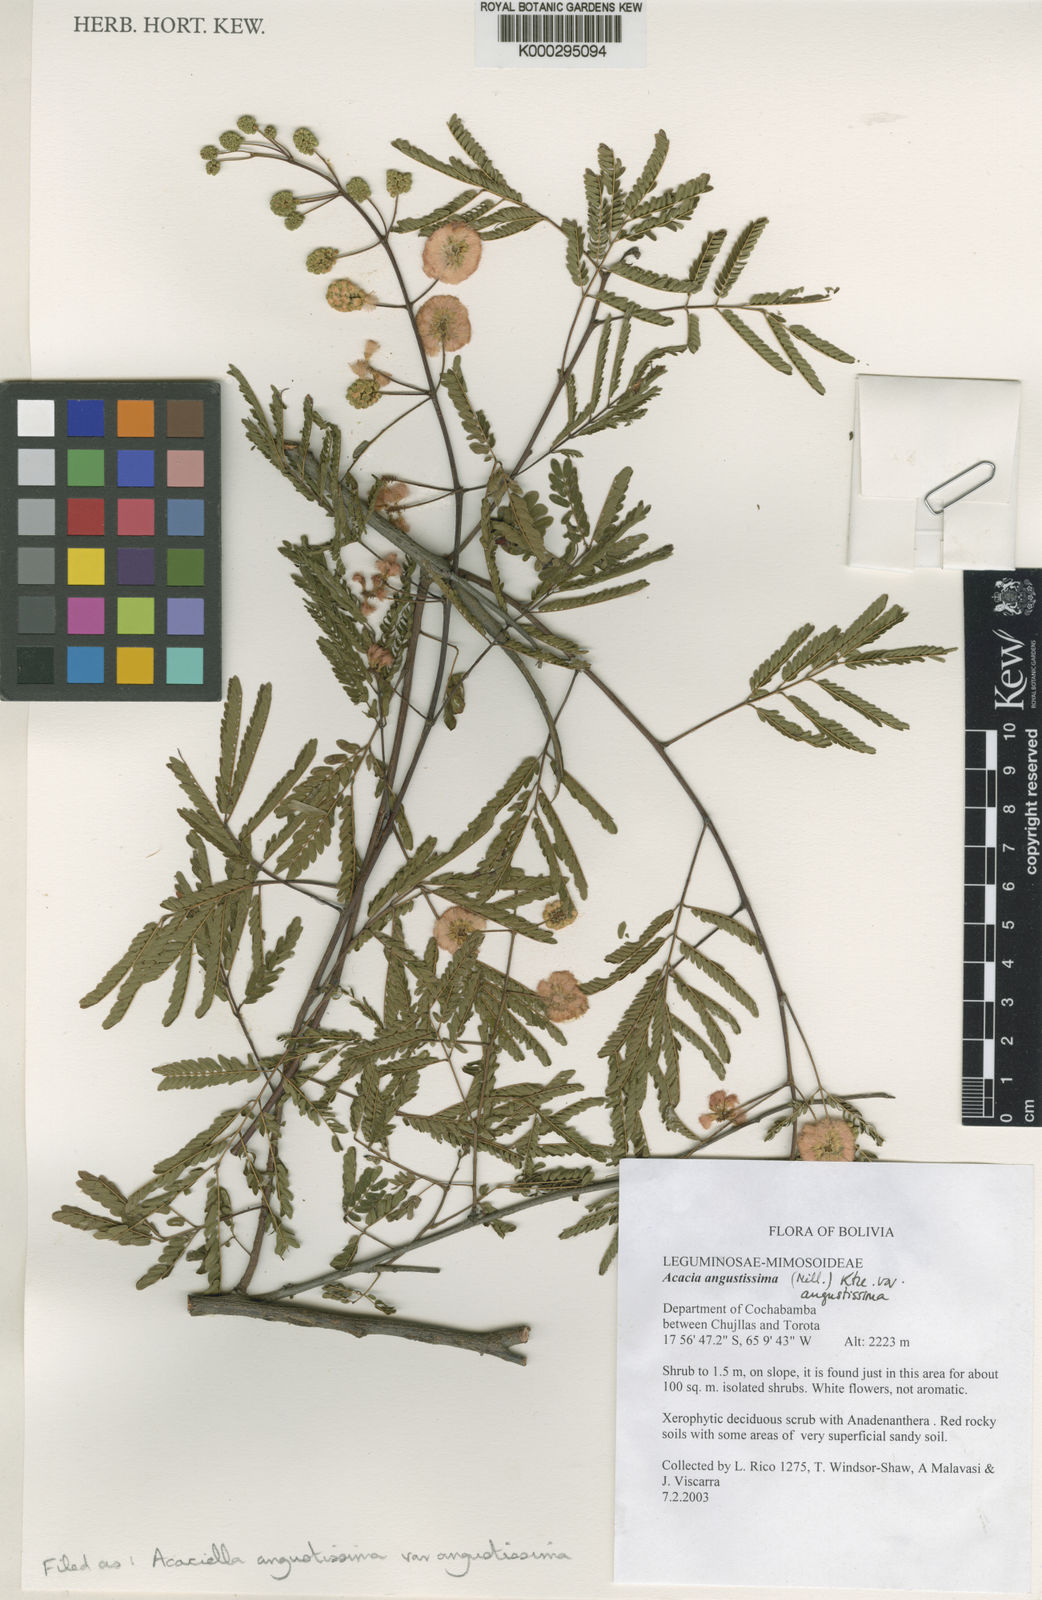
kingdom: Plantae
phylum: Tracheophyta
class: Magnoliopsida
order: Fabales
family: Fabaceae
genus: Acaciella
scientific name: Acaciella angustissima
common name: Prairie acacia
